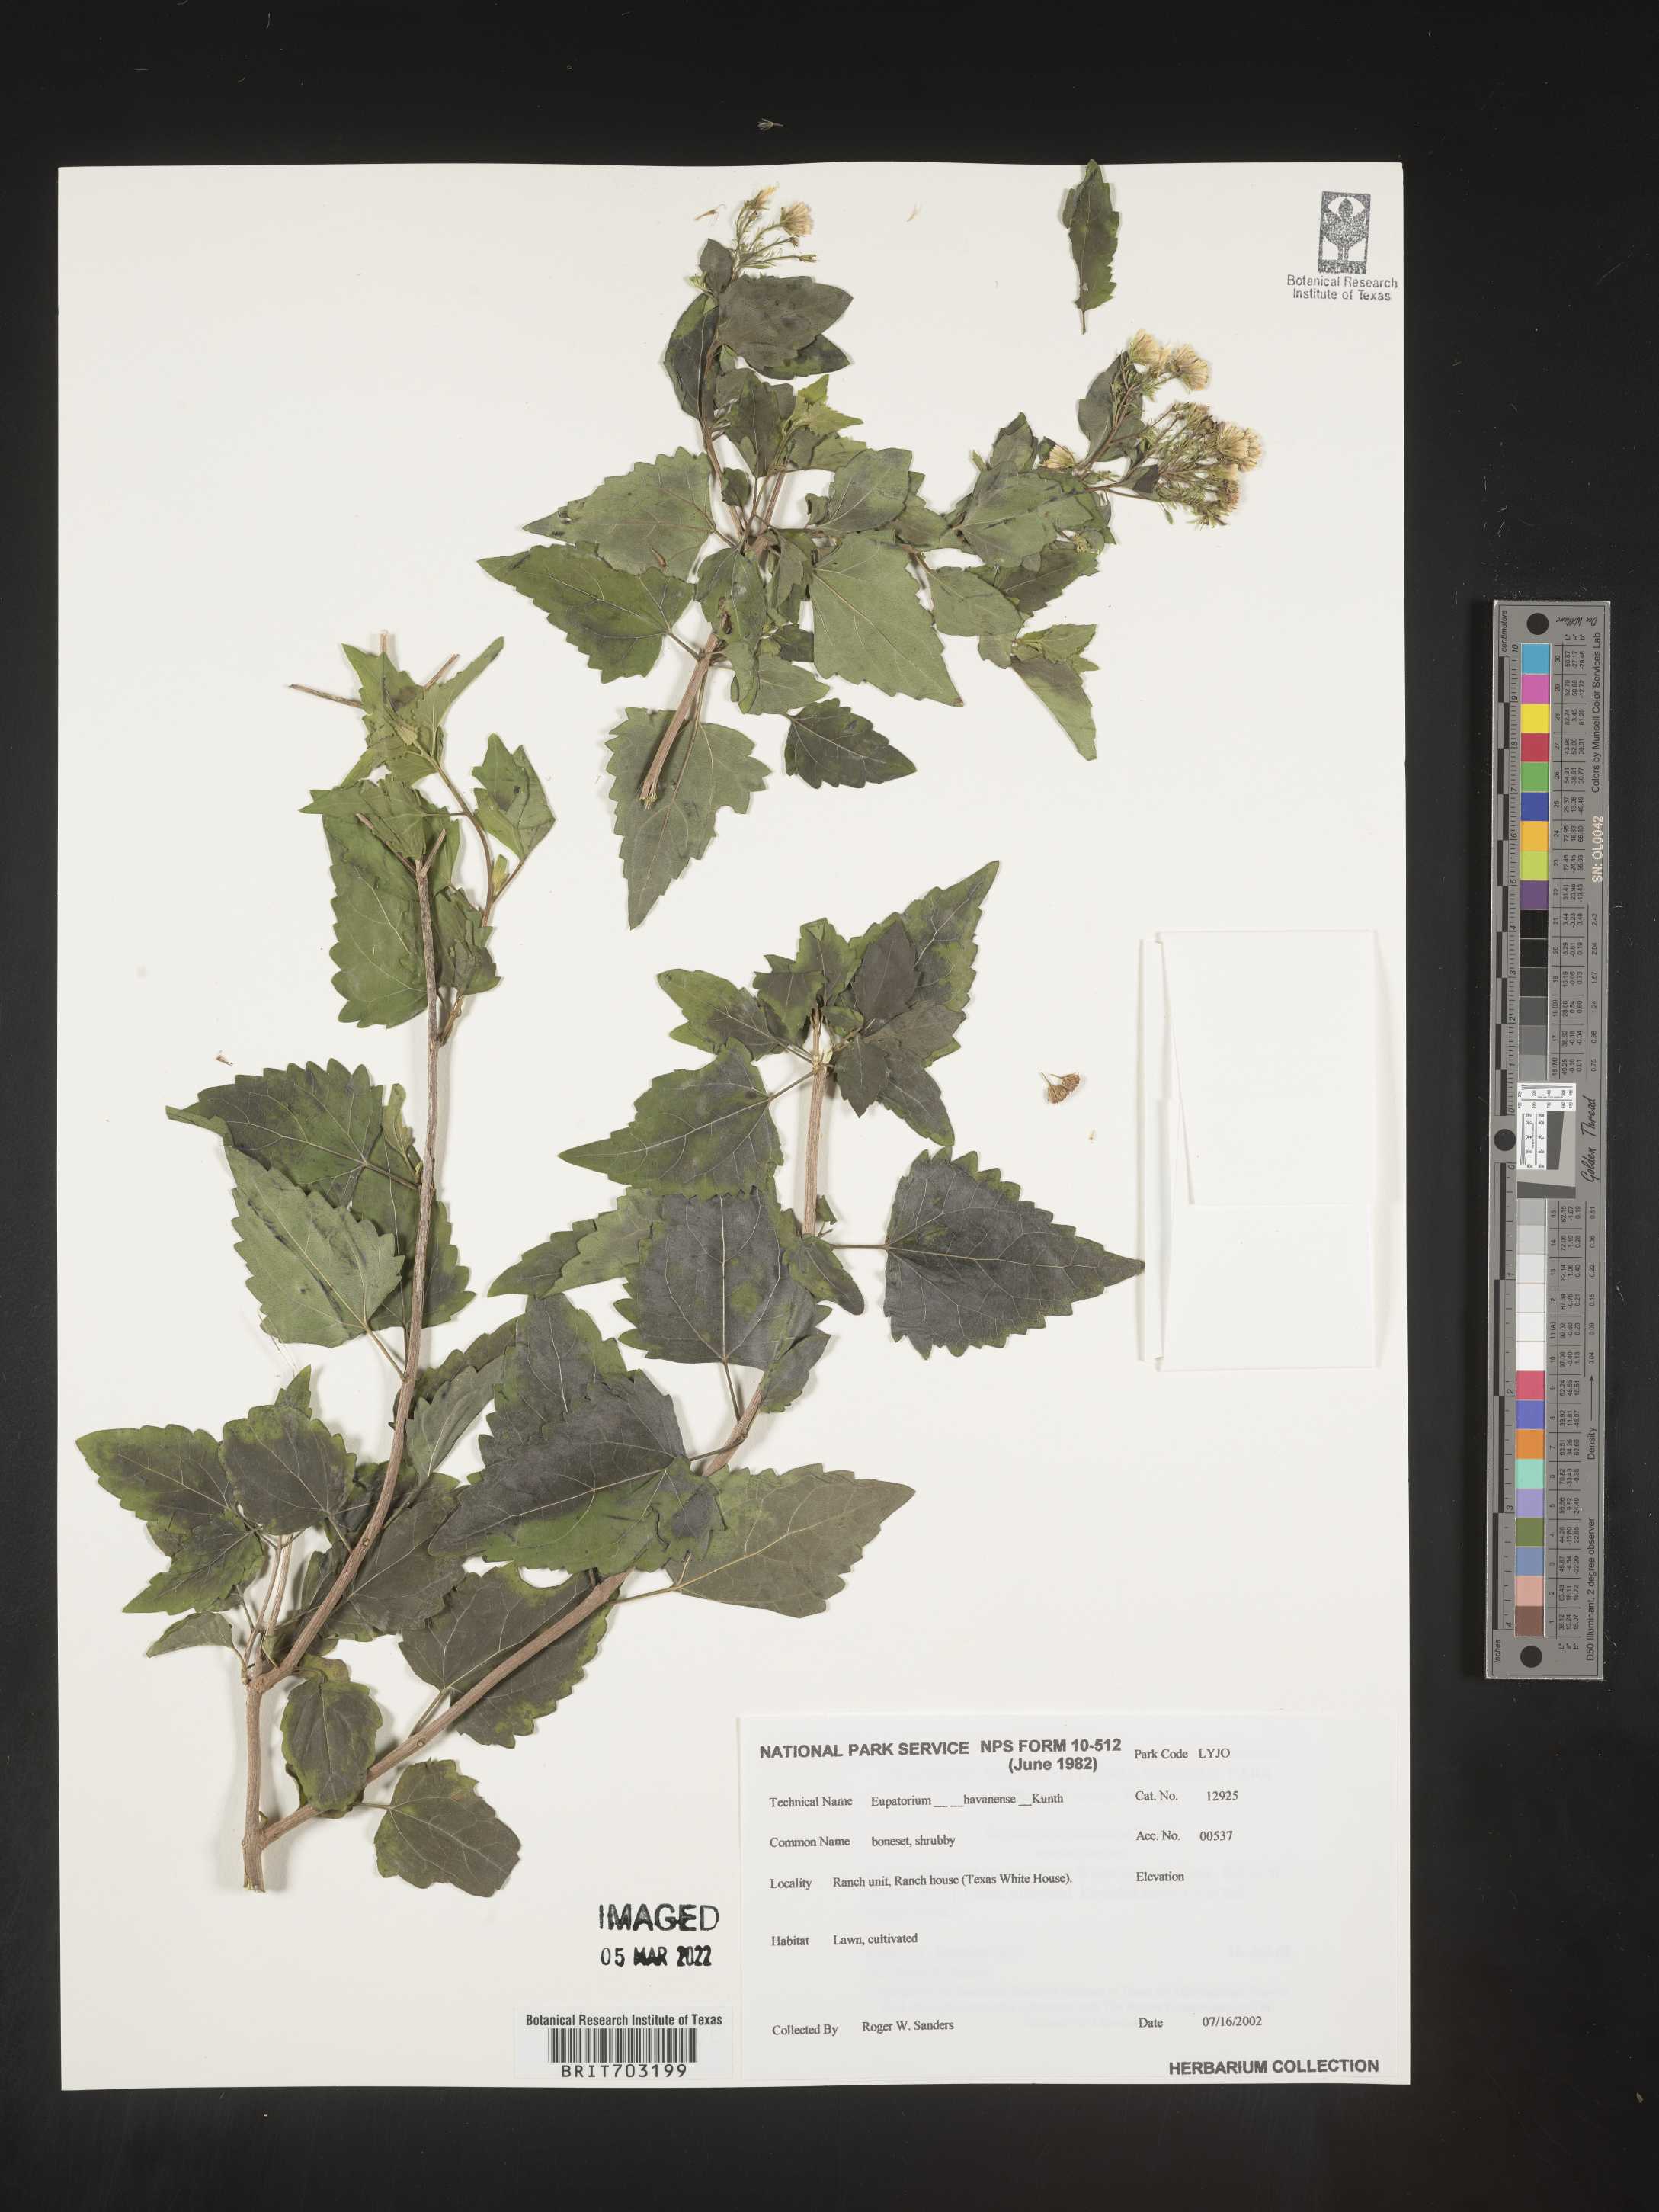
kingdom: Plantae
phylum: Tracheophyta
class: Magnoliopsida
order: Asterales
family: Asteraceae
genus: Eupatorium
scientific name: Eupatorium
